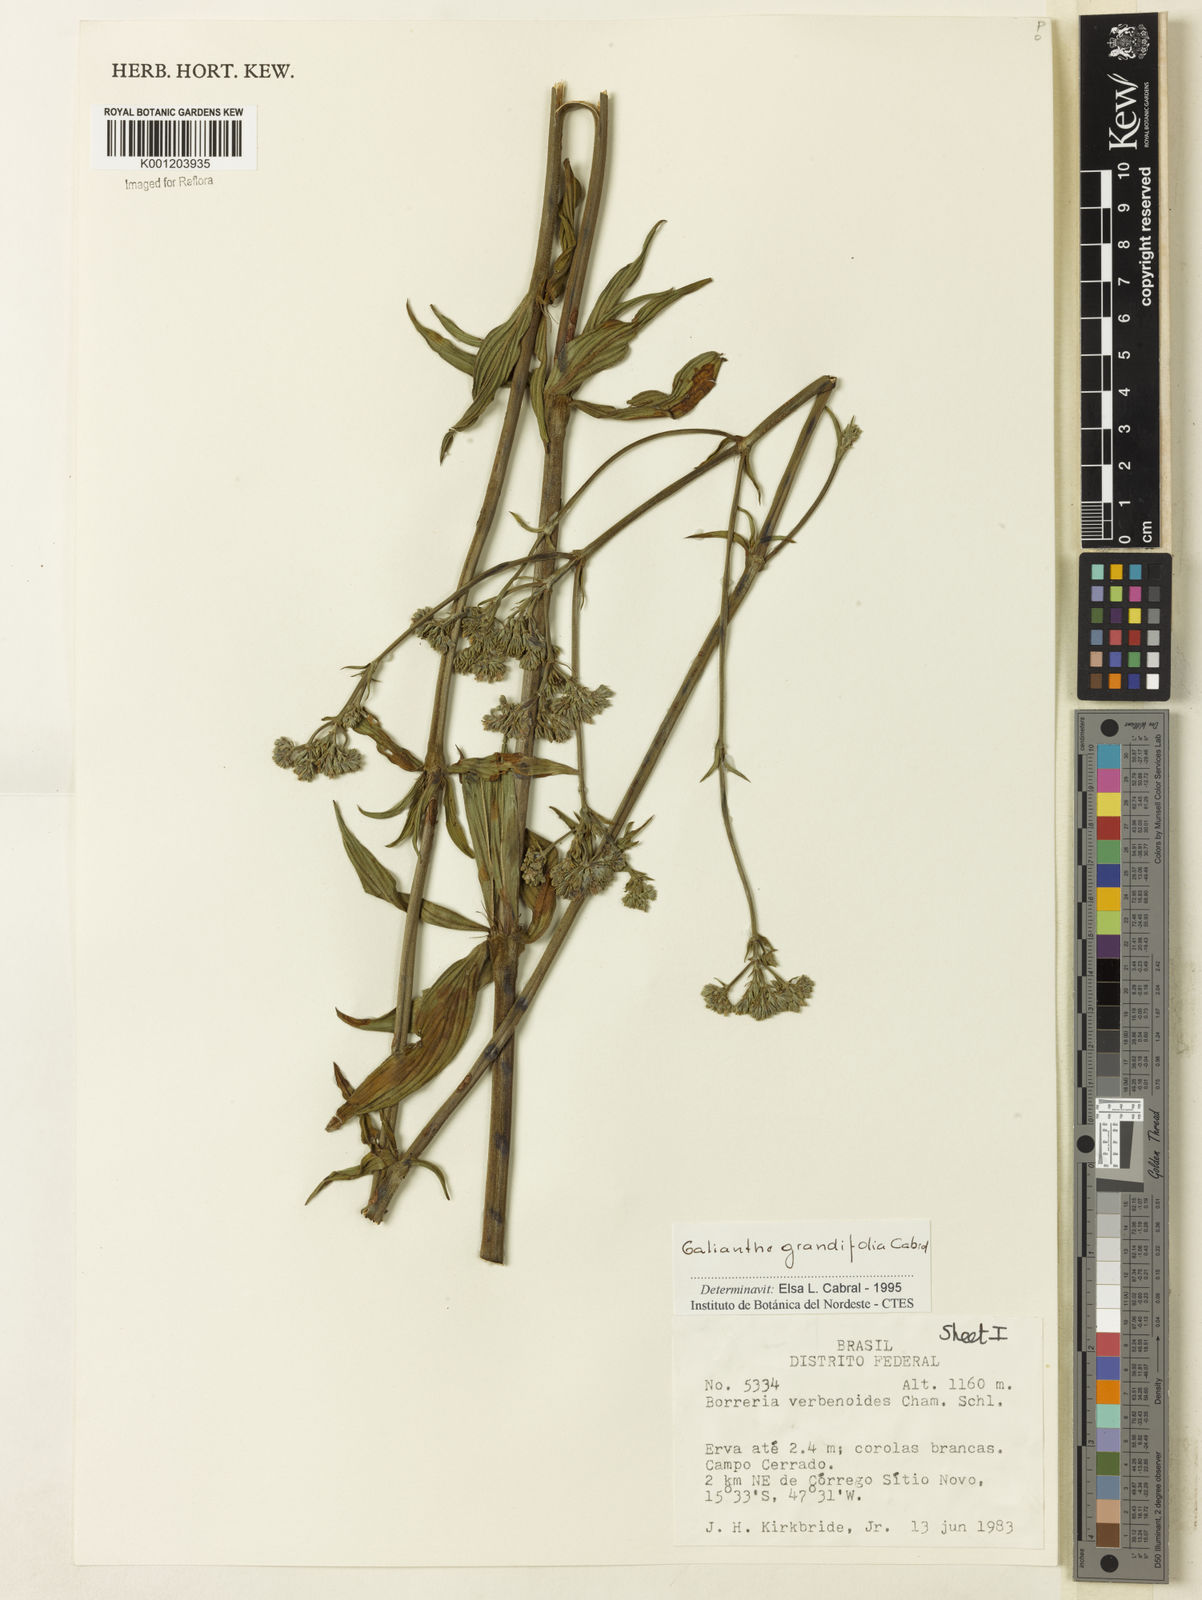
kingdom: Plantae
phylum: Tracheophyta
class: Magnoliopsida
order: Gentianales
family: Rubiaceae
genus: Galianthe
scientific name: Galianthe grandifolia
